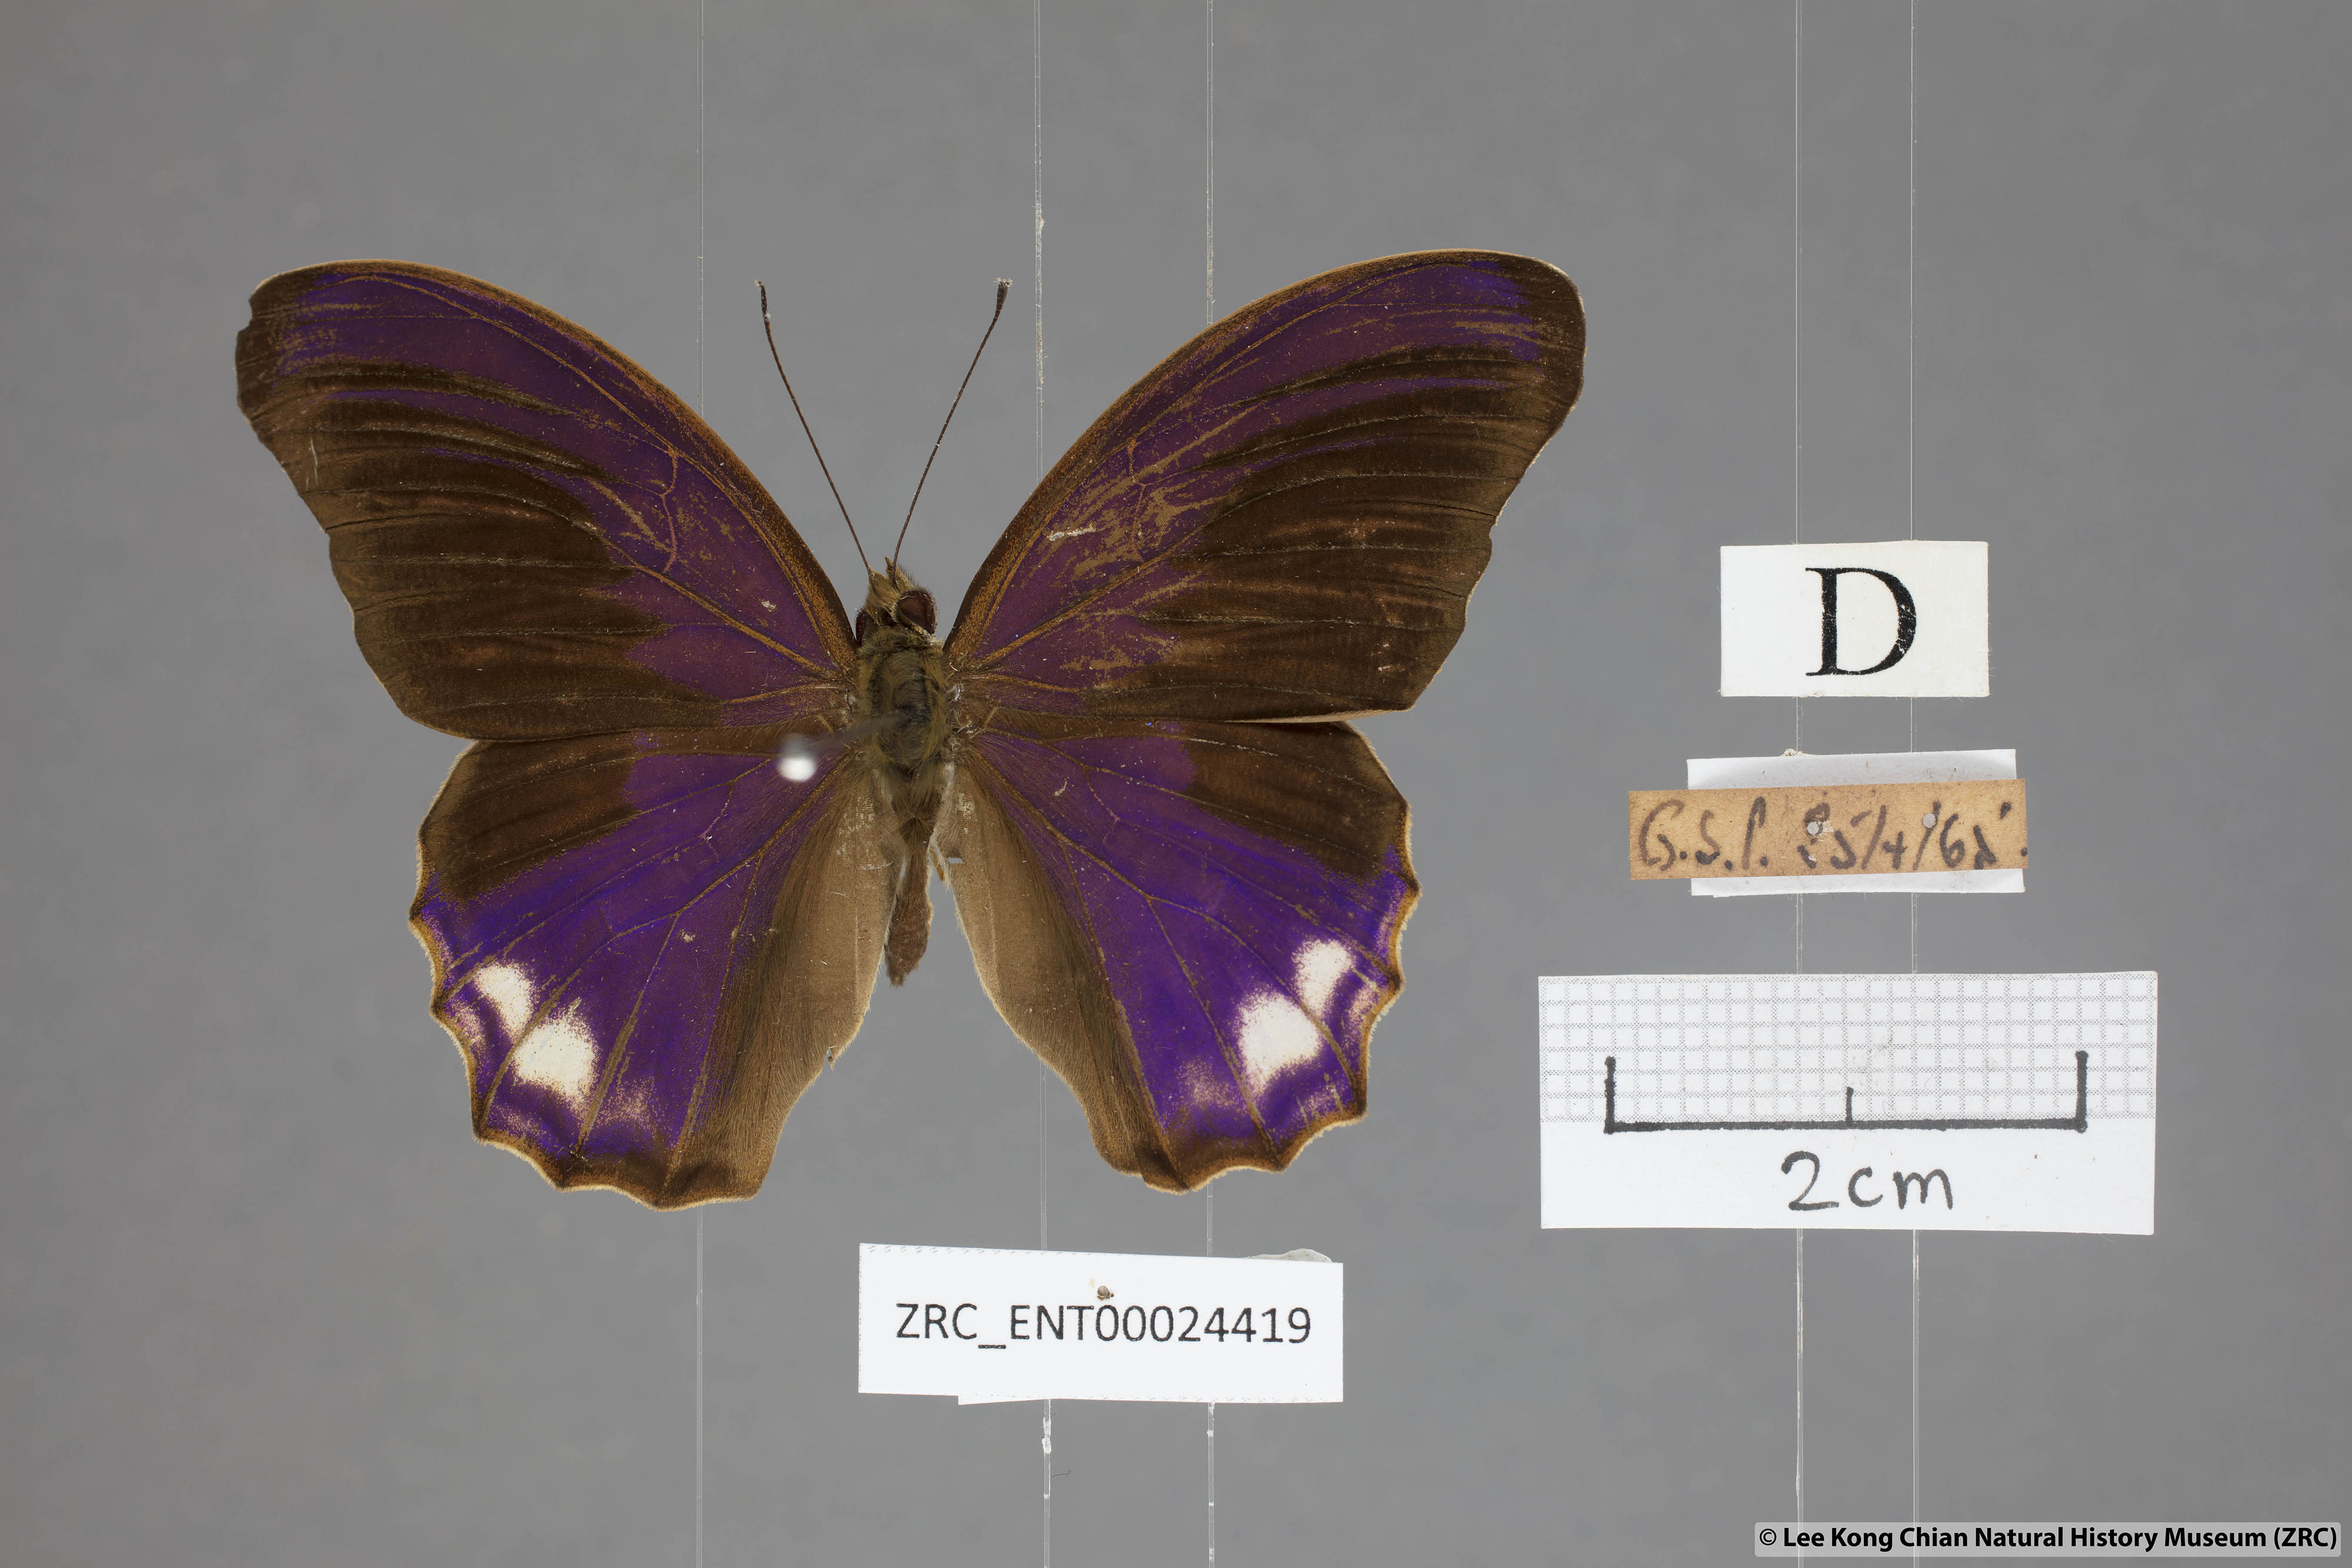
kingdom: Animalia
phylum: Arthropoda
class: Insecta
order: Lepidoptera
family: Nymphalidae
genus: Terinos
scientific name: Terinos atlita
